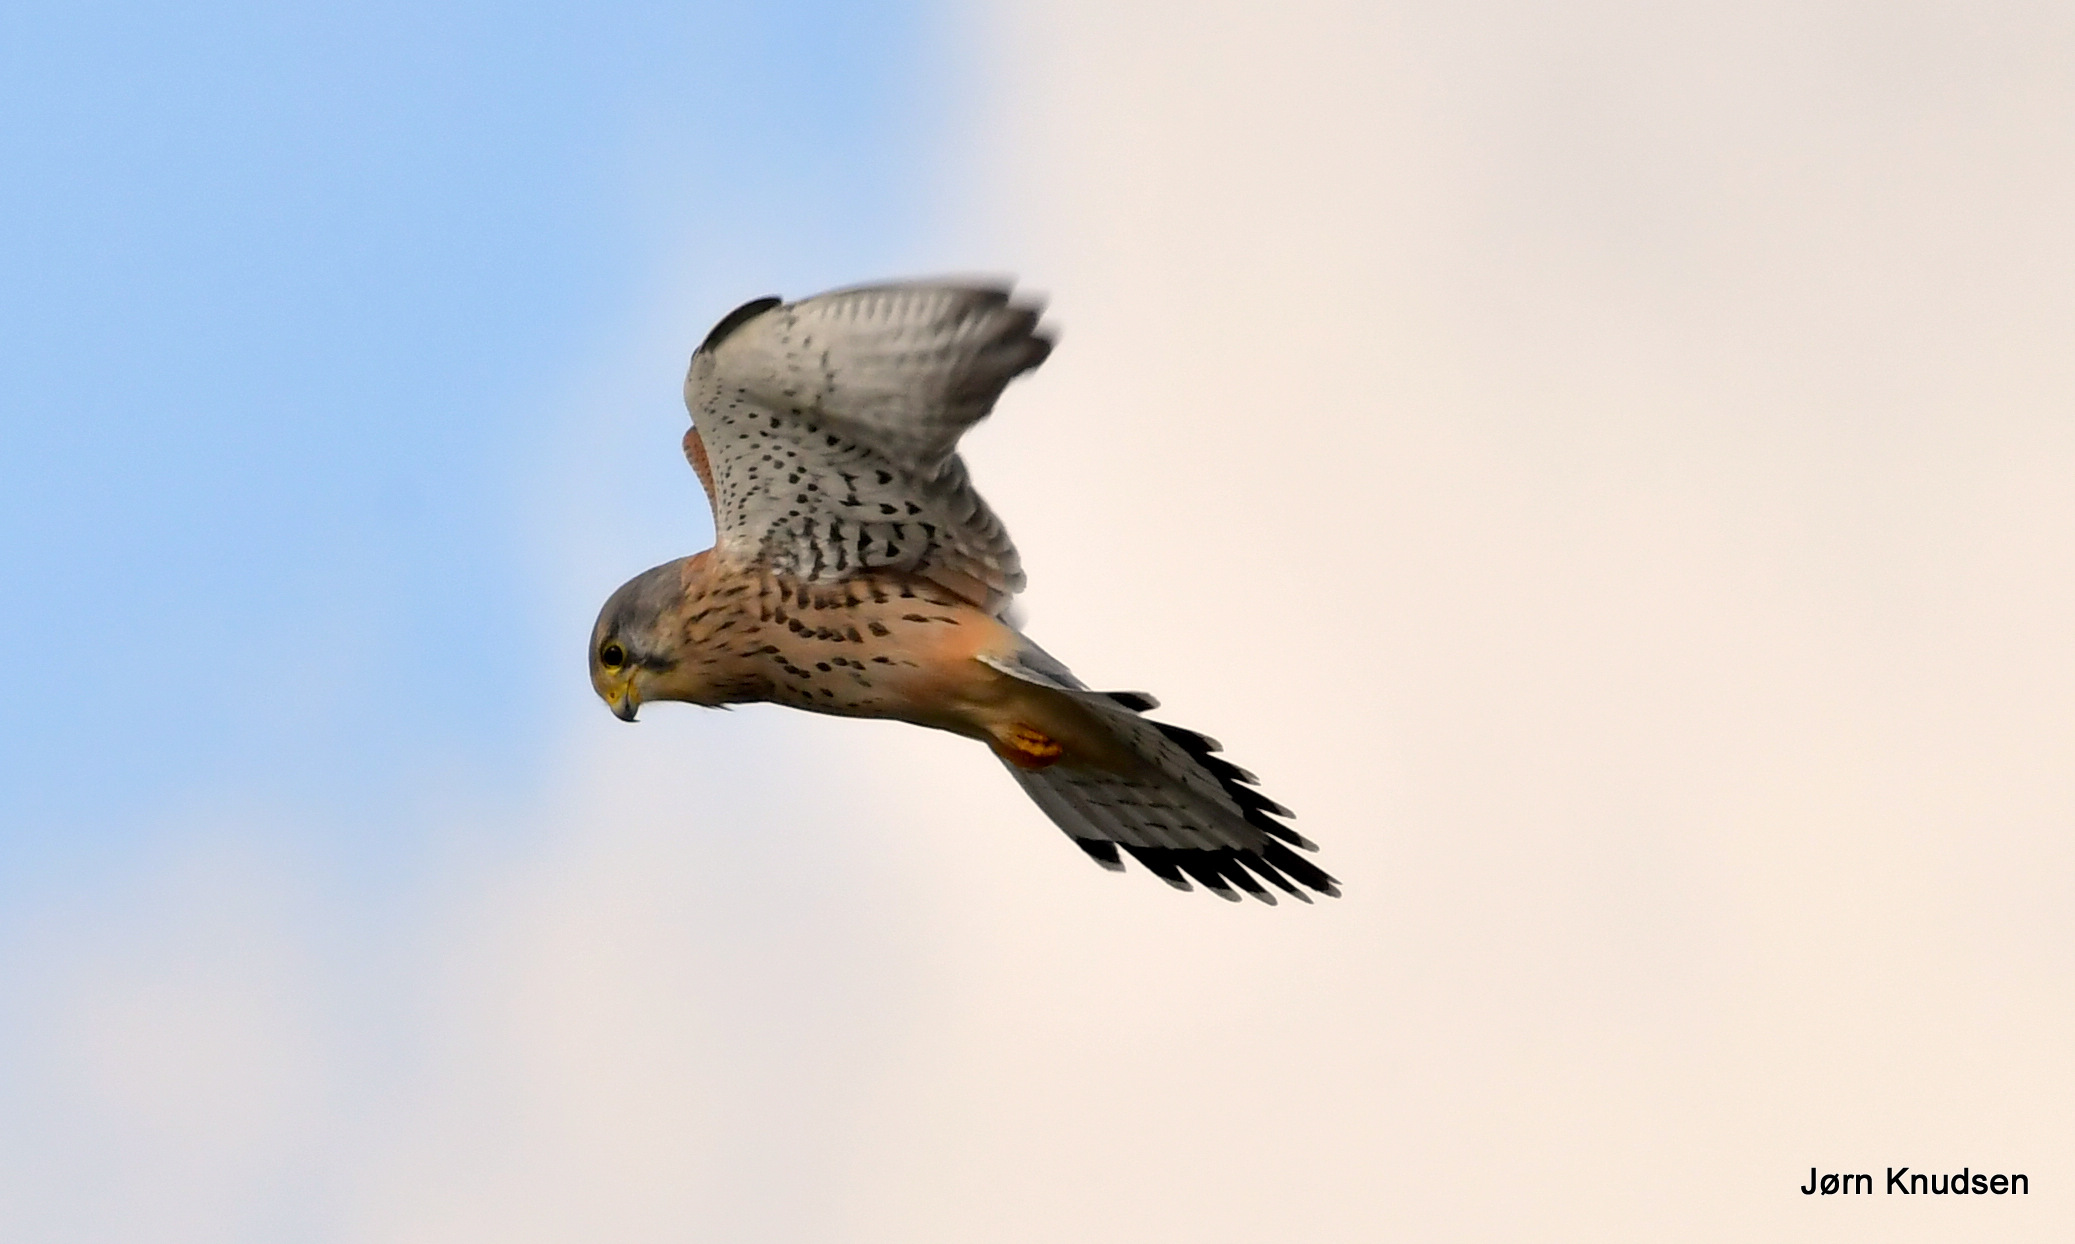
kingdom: Animalia
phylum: Chordata
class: Aves
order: Falconiformes
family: Falconidae
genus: Falco
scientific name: Falco tinnunculus
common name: Tårnfalk
